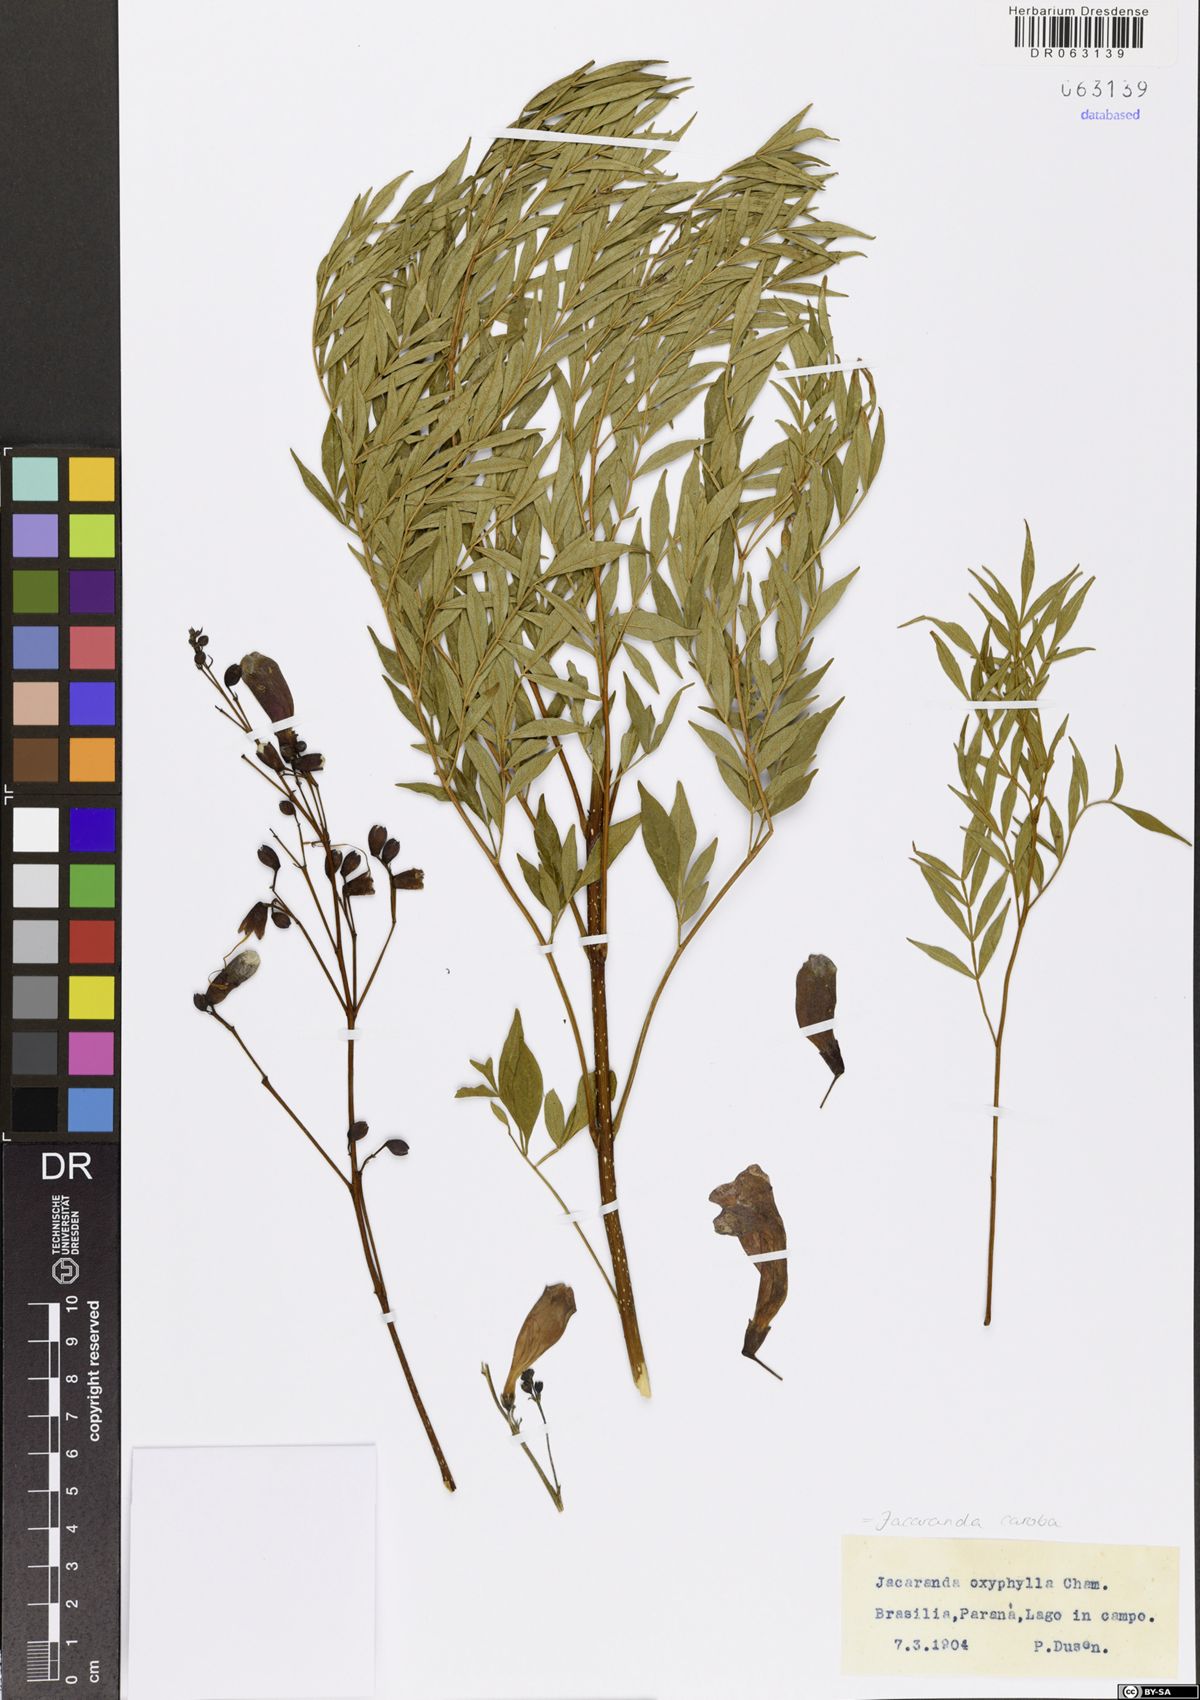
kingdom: Plantae
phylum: Tracheophyta
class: Magnoliopsida
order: Lamiales
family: Bignoniaceae
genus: Jacaranda
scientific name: Jacaranda caroba
